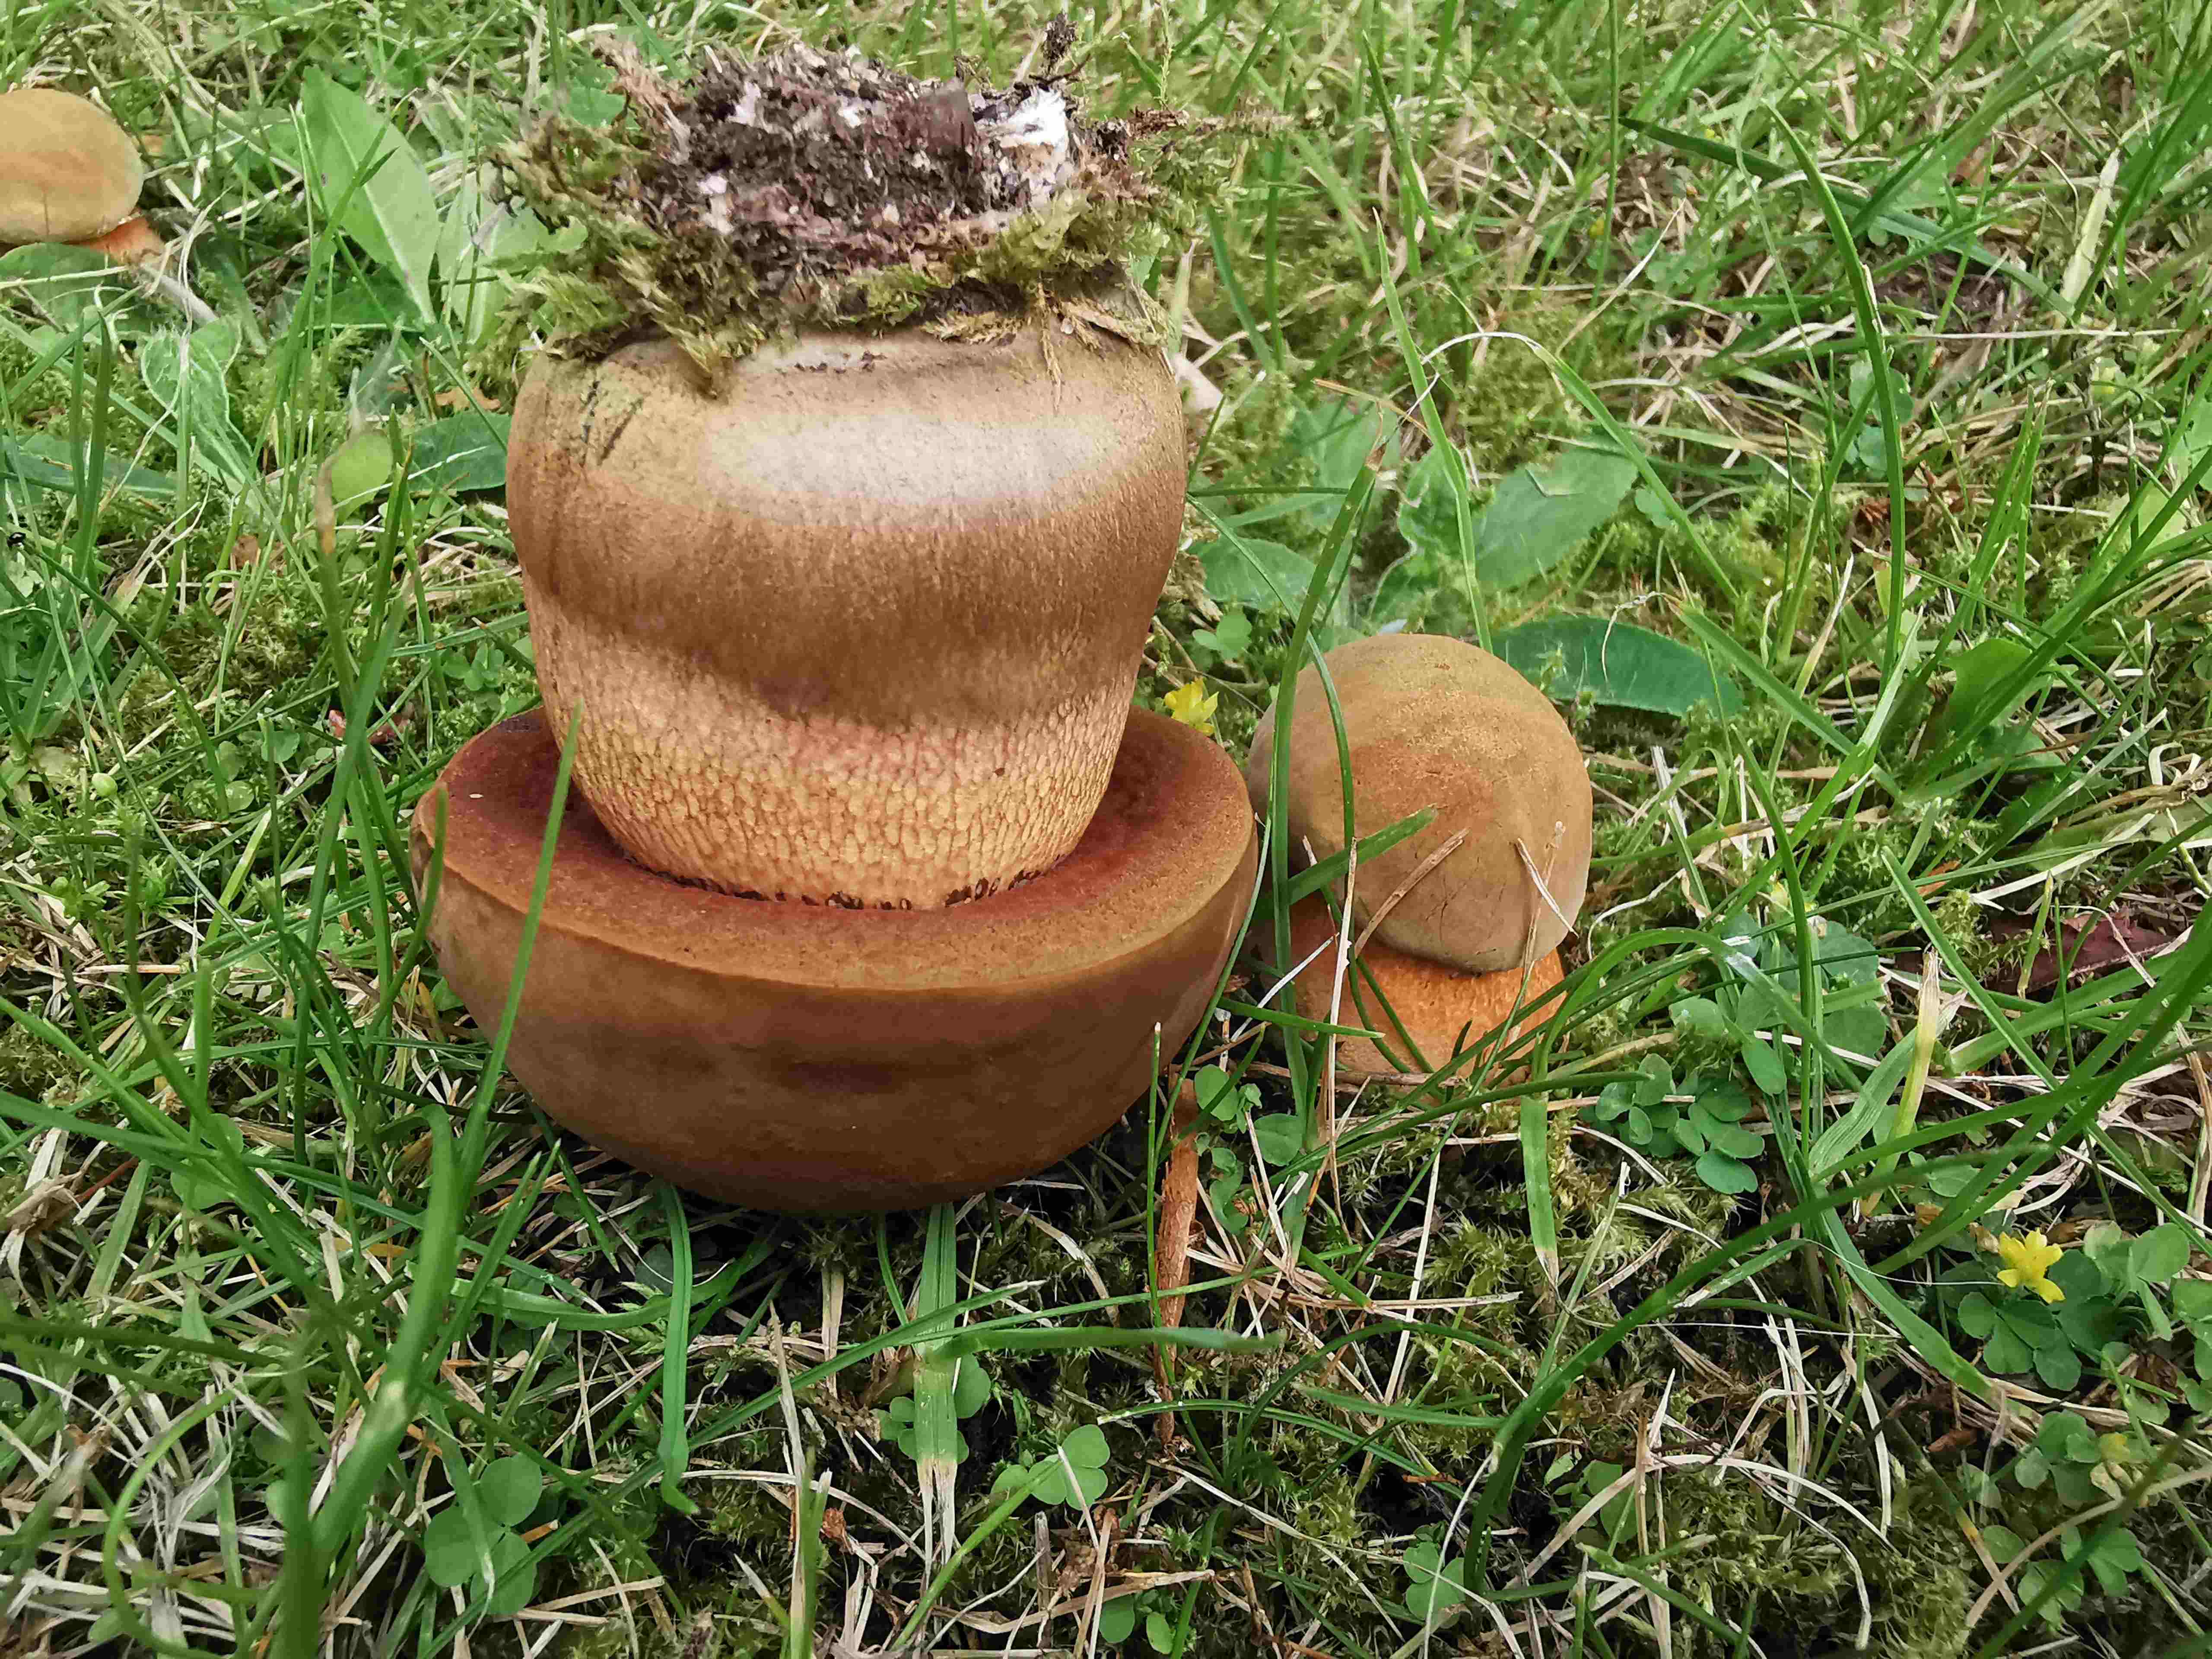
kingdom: Fungi
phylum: Basidiomycota
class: Agaricomycetes
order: Boletales
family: Boletaceae
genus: Suillellus
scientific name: Suillellus luridus
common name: netstokket indigorørhat
